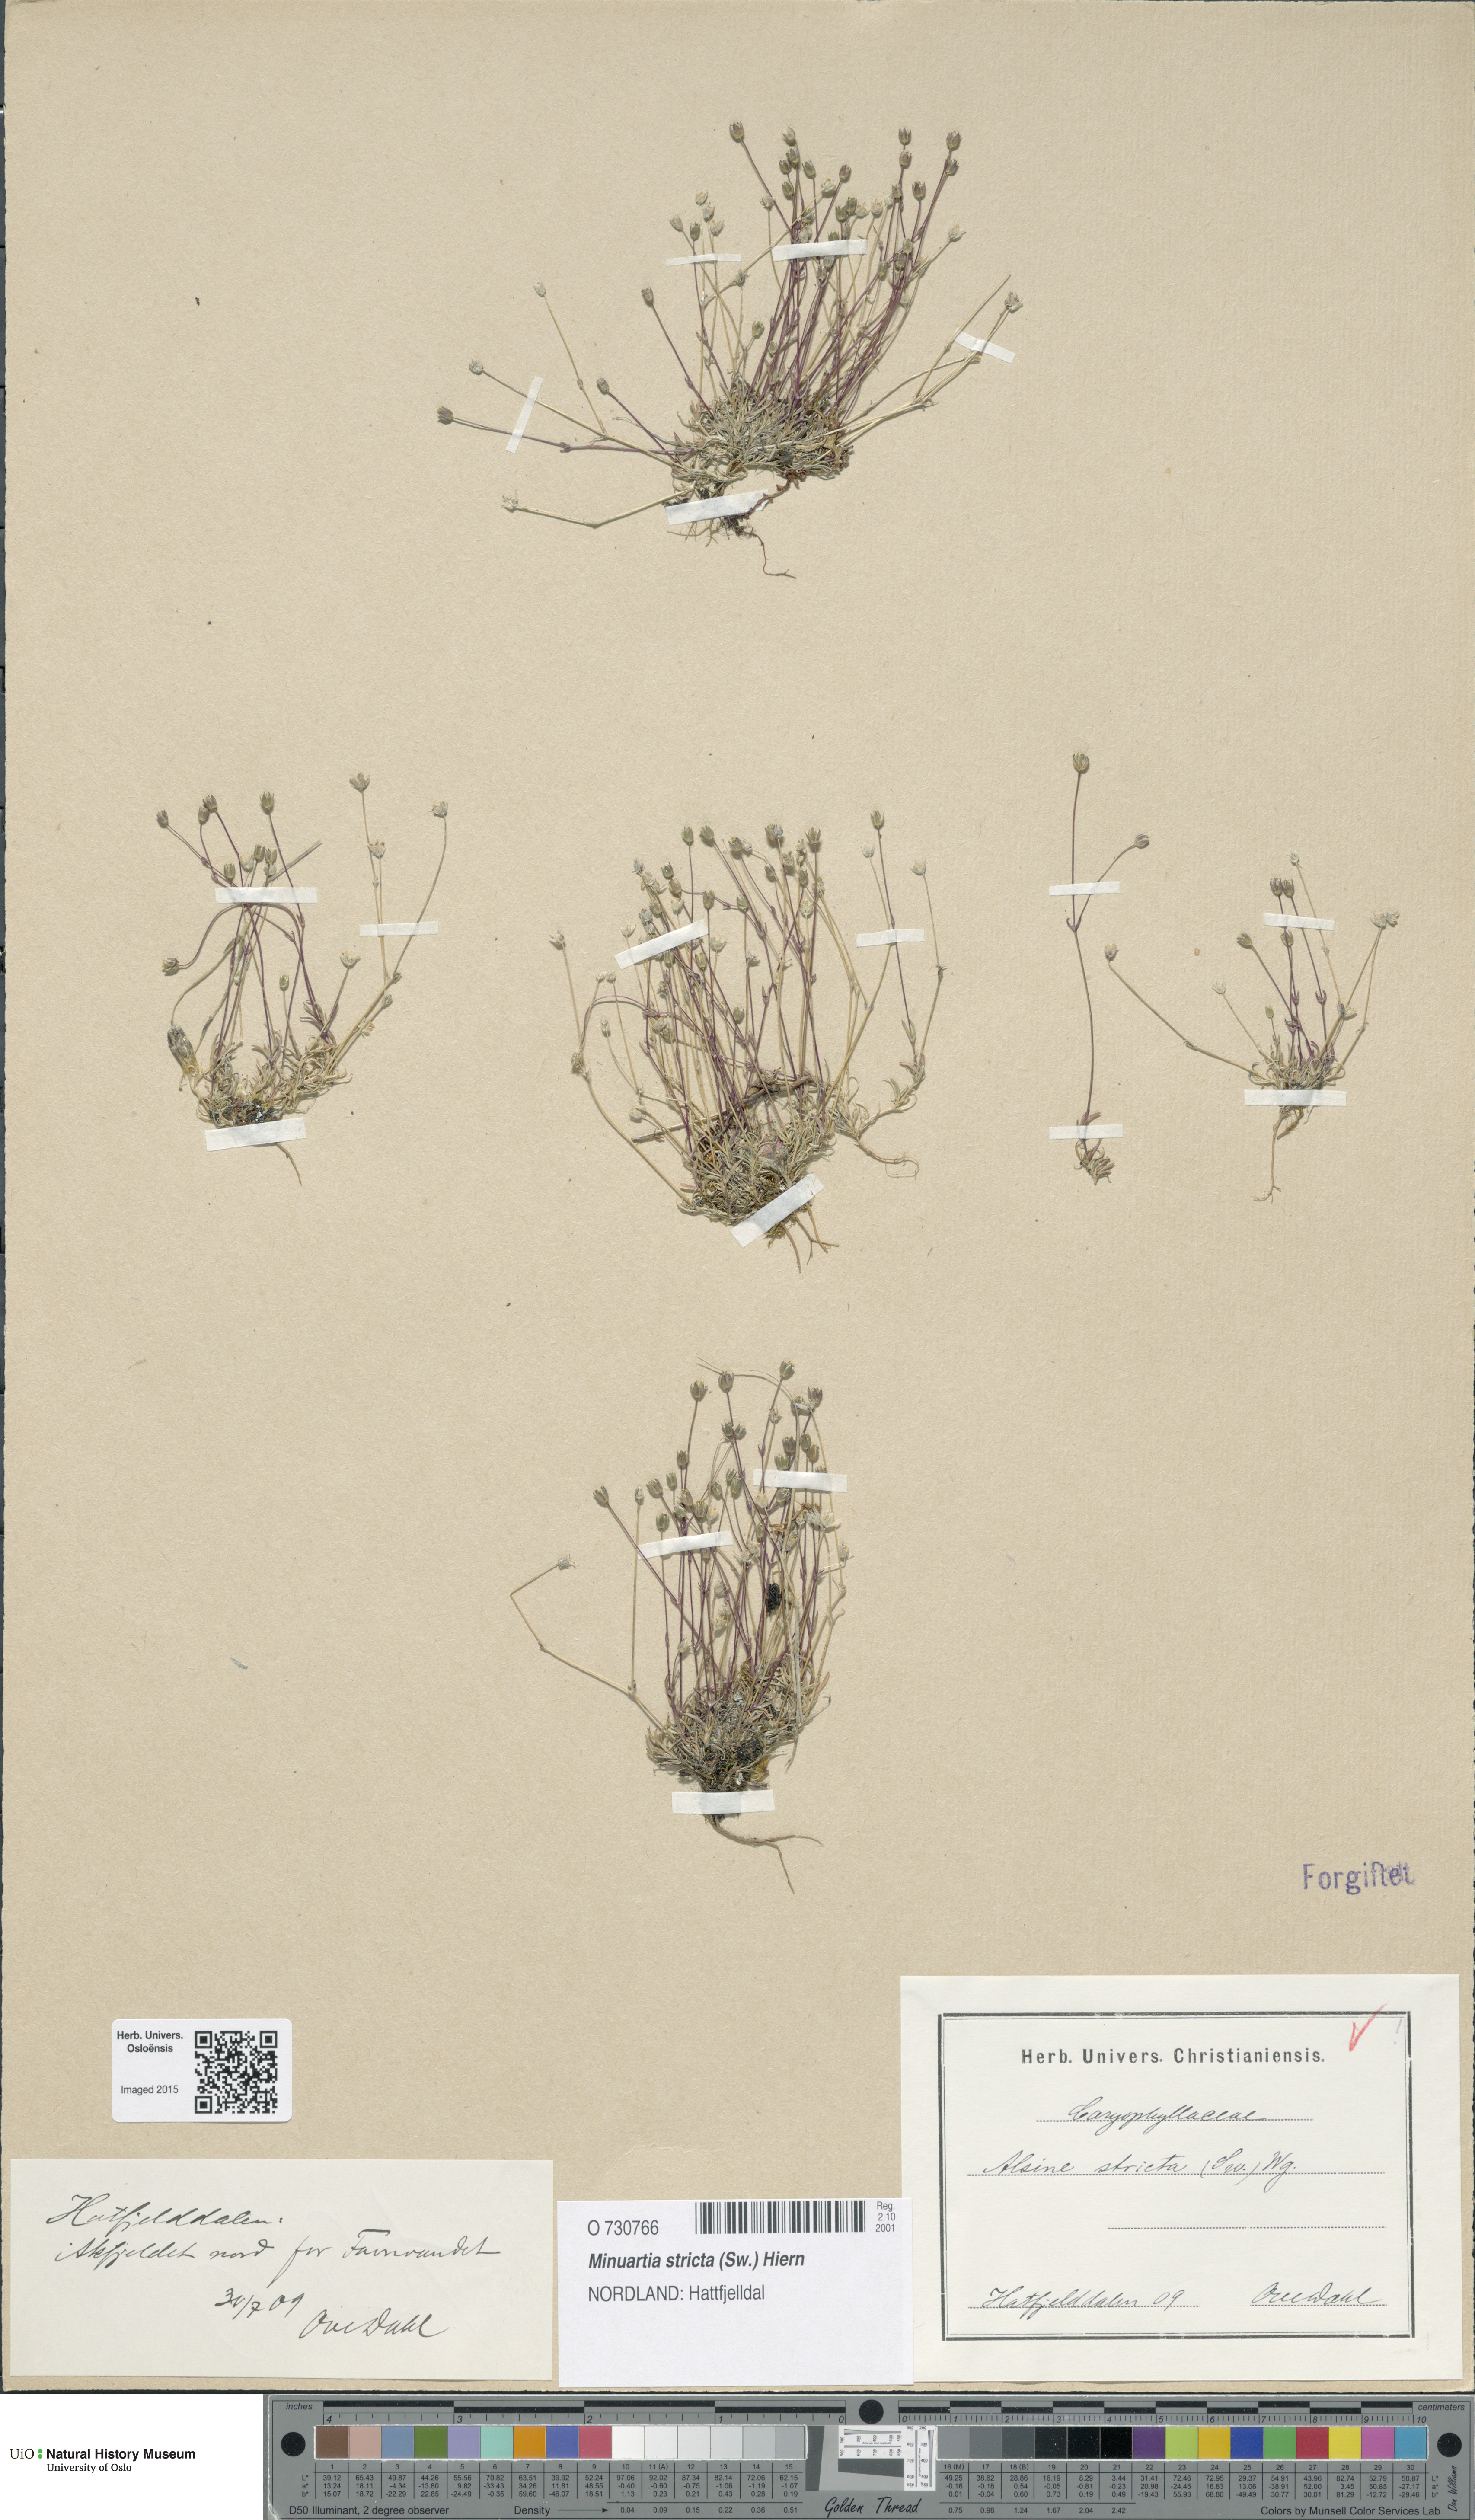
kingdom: Plantae
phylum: Tracheophyta
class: Magnoliopsida
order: Caryophyllales
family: Caryophyllaceae
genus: Sabulina
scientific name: Sabulina stricta
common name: Bog sandwort
